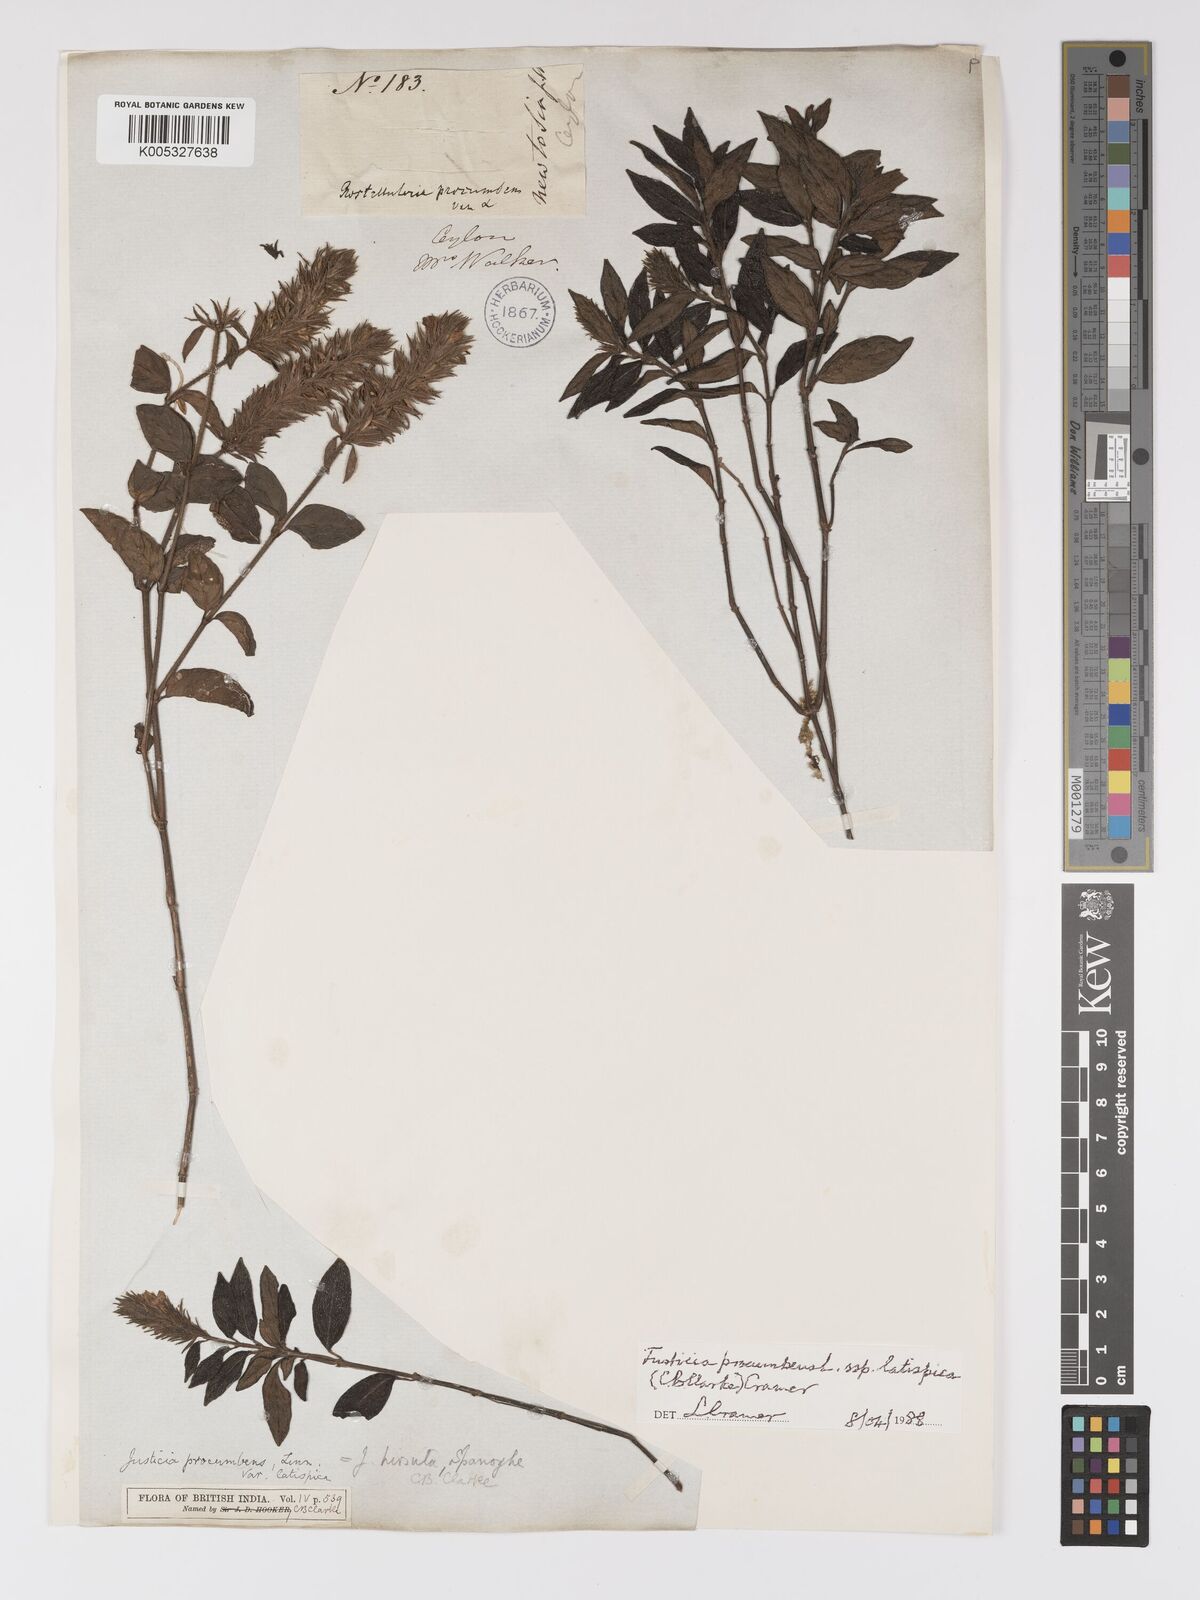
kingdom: Plantae
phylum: Tracheophyta
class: Magnoliopsida
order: Lamiales
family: Acanthaceae
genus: Rostellularia
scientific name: Rostellularia latispica
